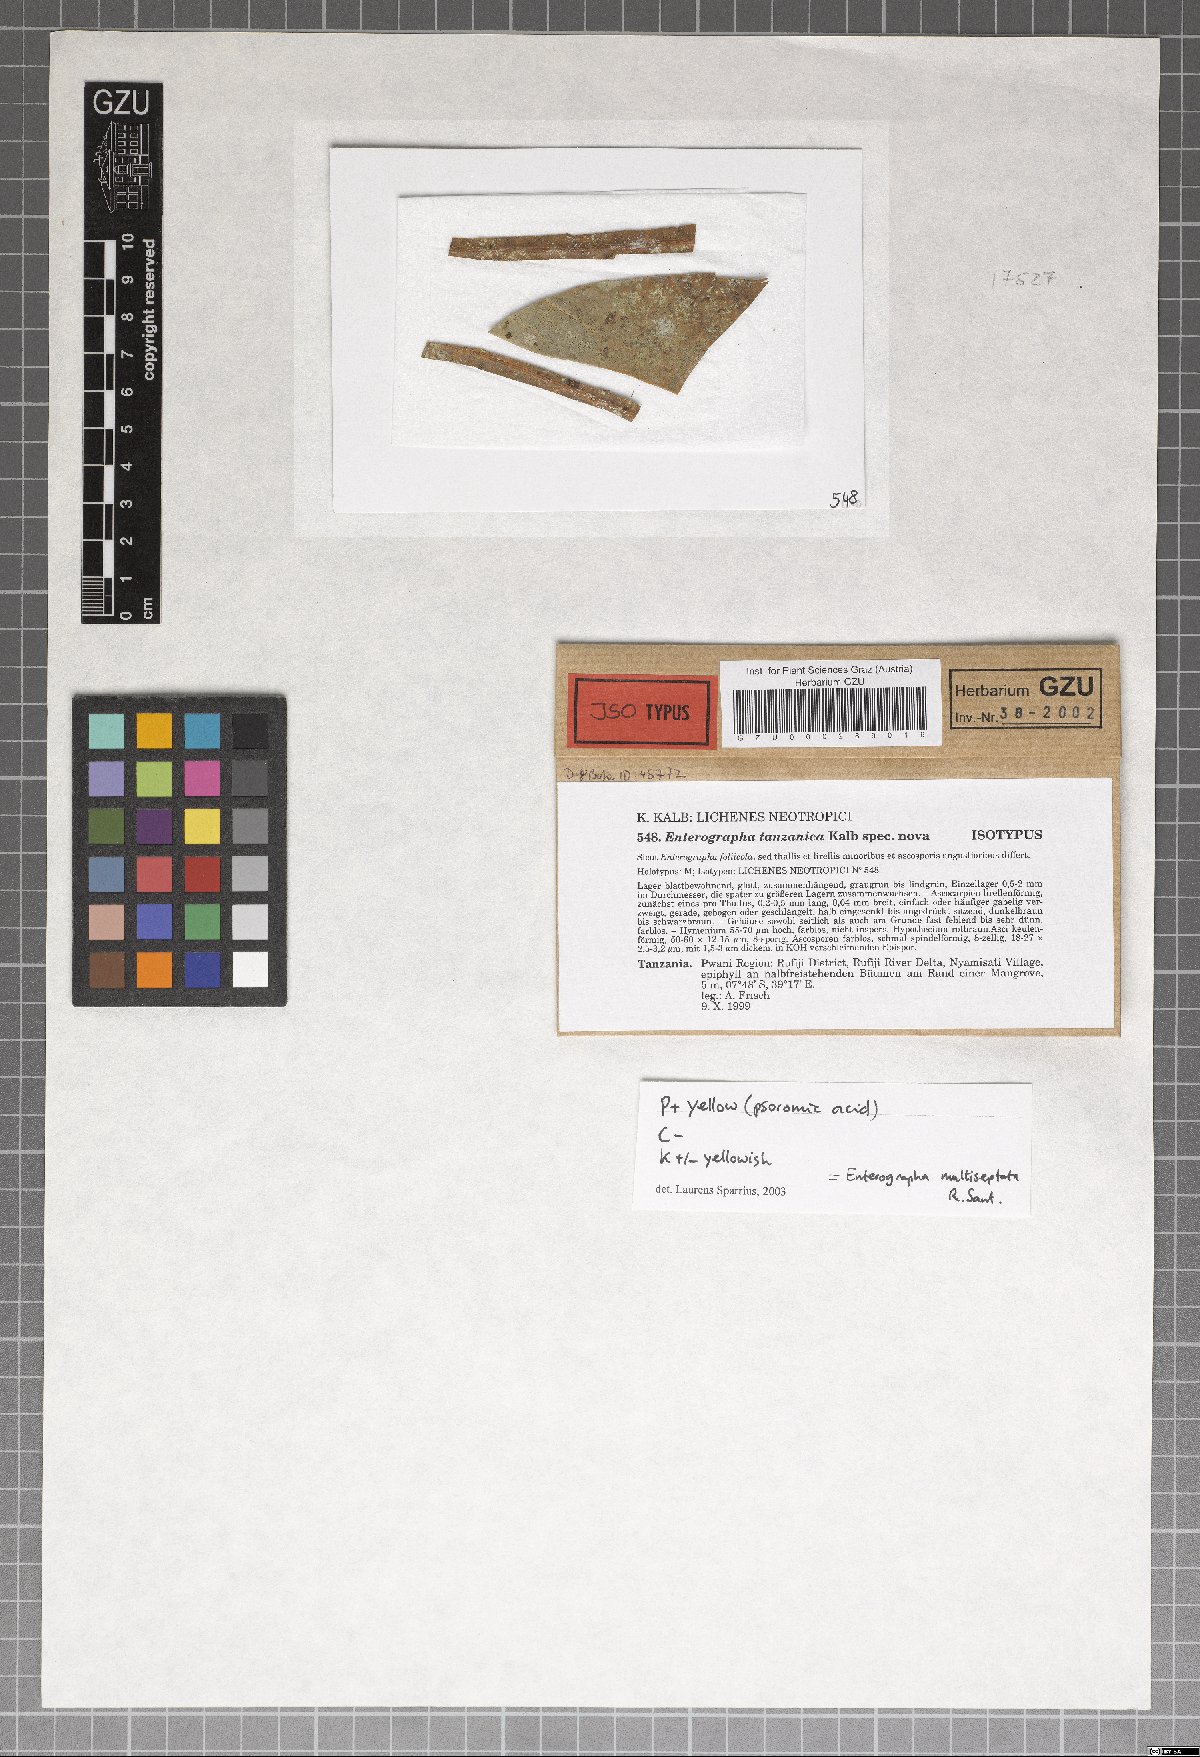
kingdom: Fungi
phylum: Ascomycota
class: Arthoniomycetes
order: Arthoniales
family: Roccellaceae
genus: Enterographa
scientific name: Enterographa tanzanica
